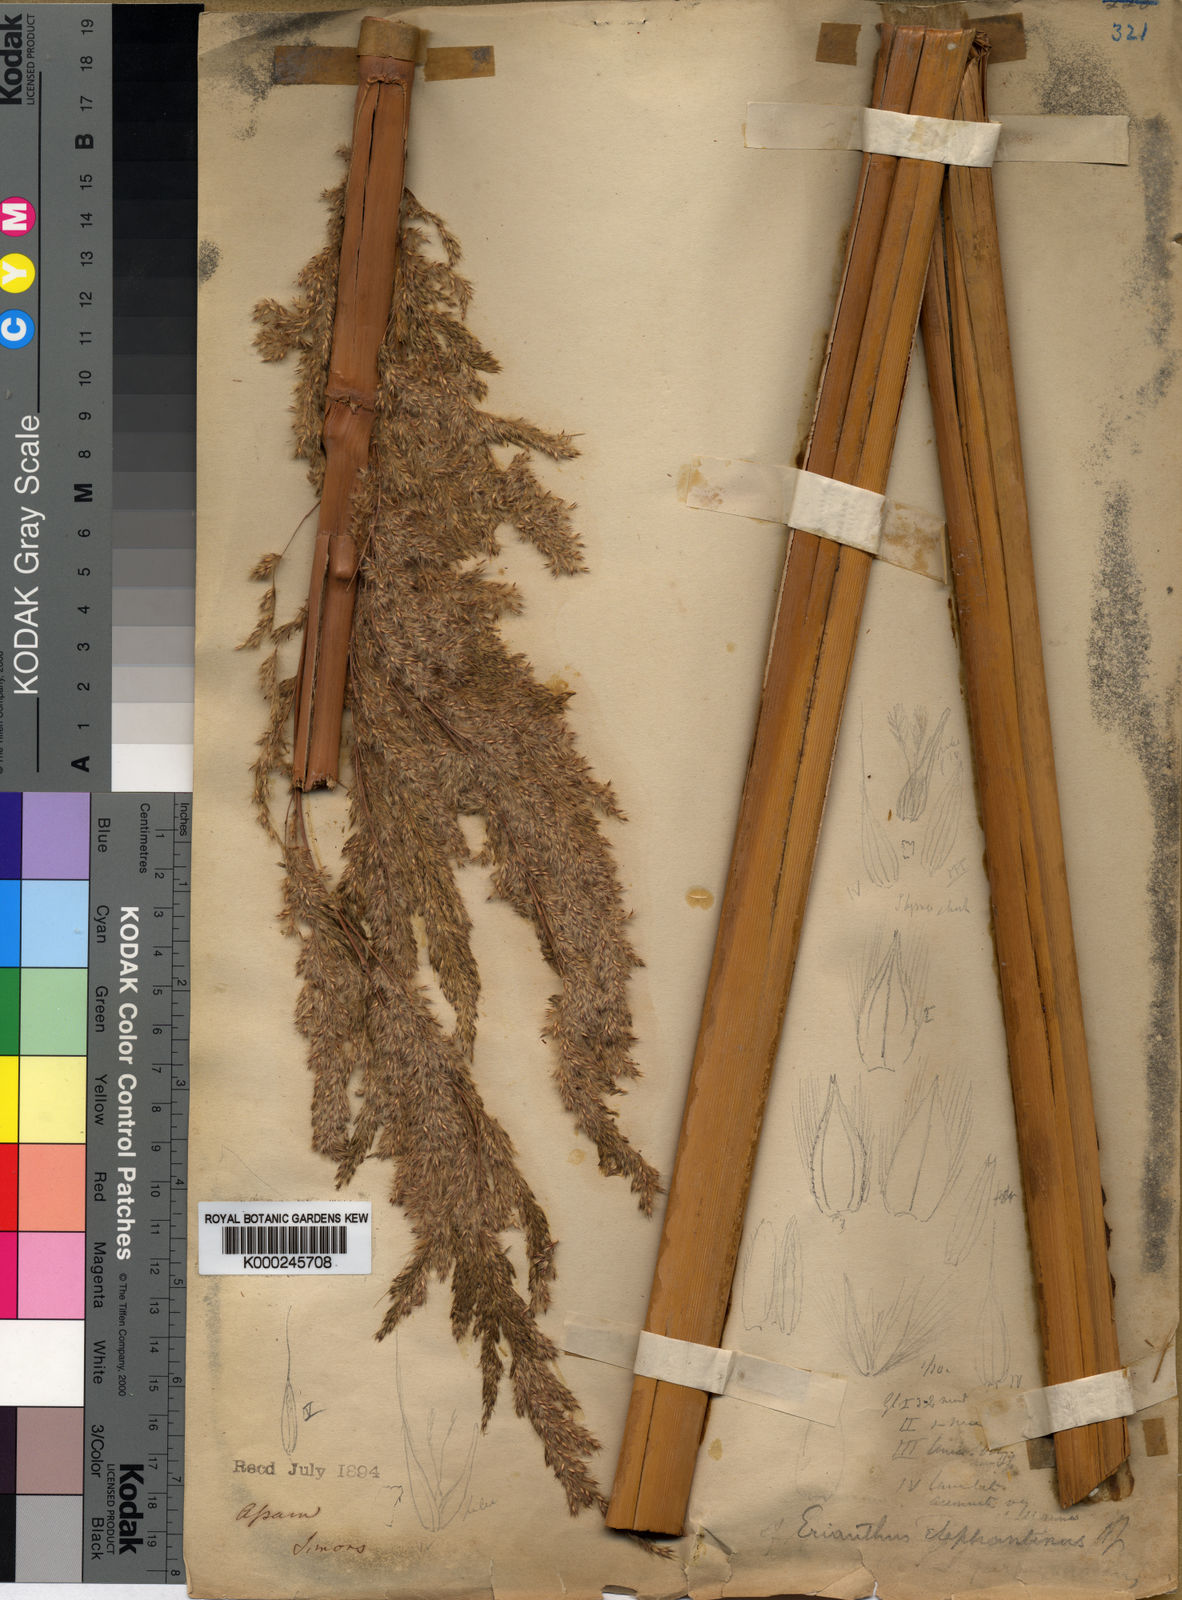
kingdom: Plantae
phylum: Tracheophyta
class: Liliopsida
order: Poales
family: Poaceae
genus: Tripidium
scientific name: Tripidium ravennae
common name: Ravenna grass
